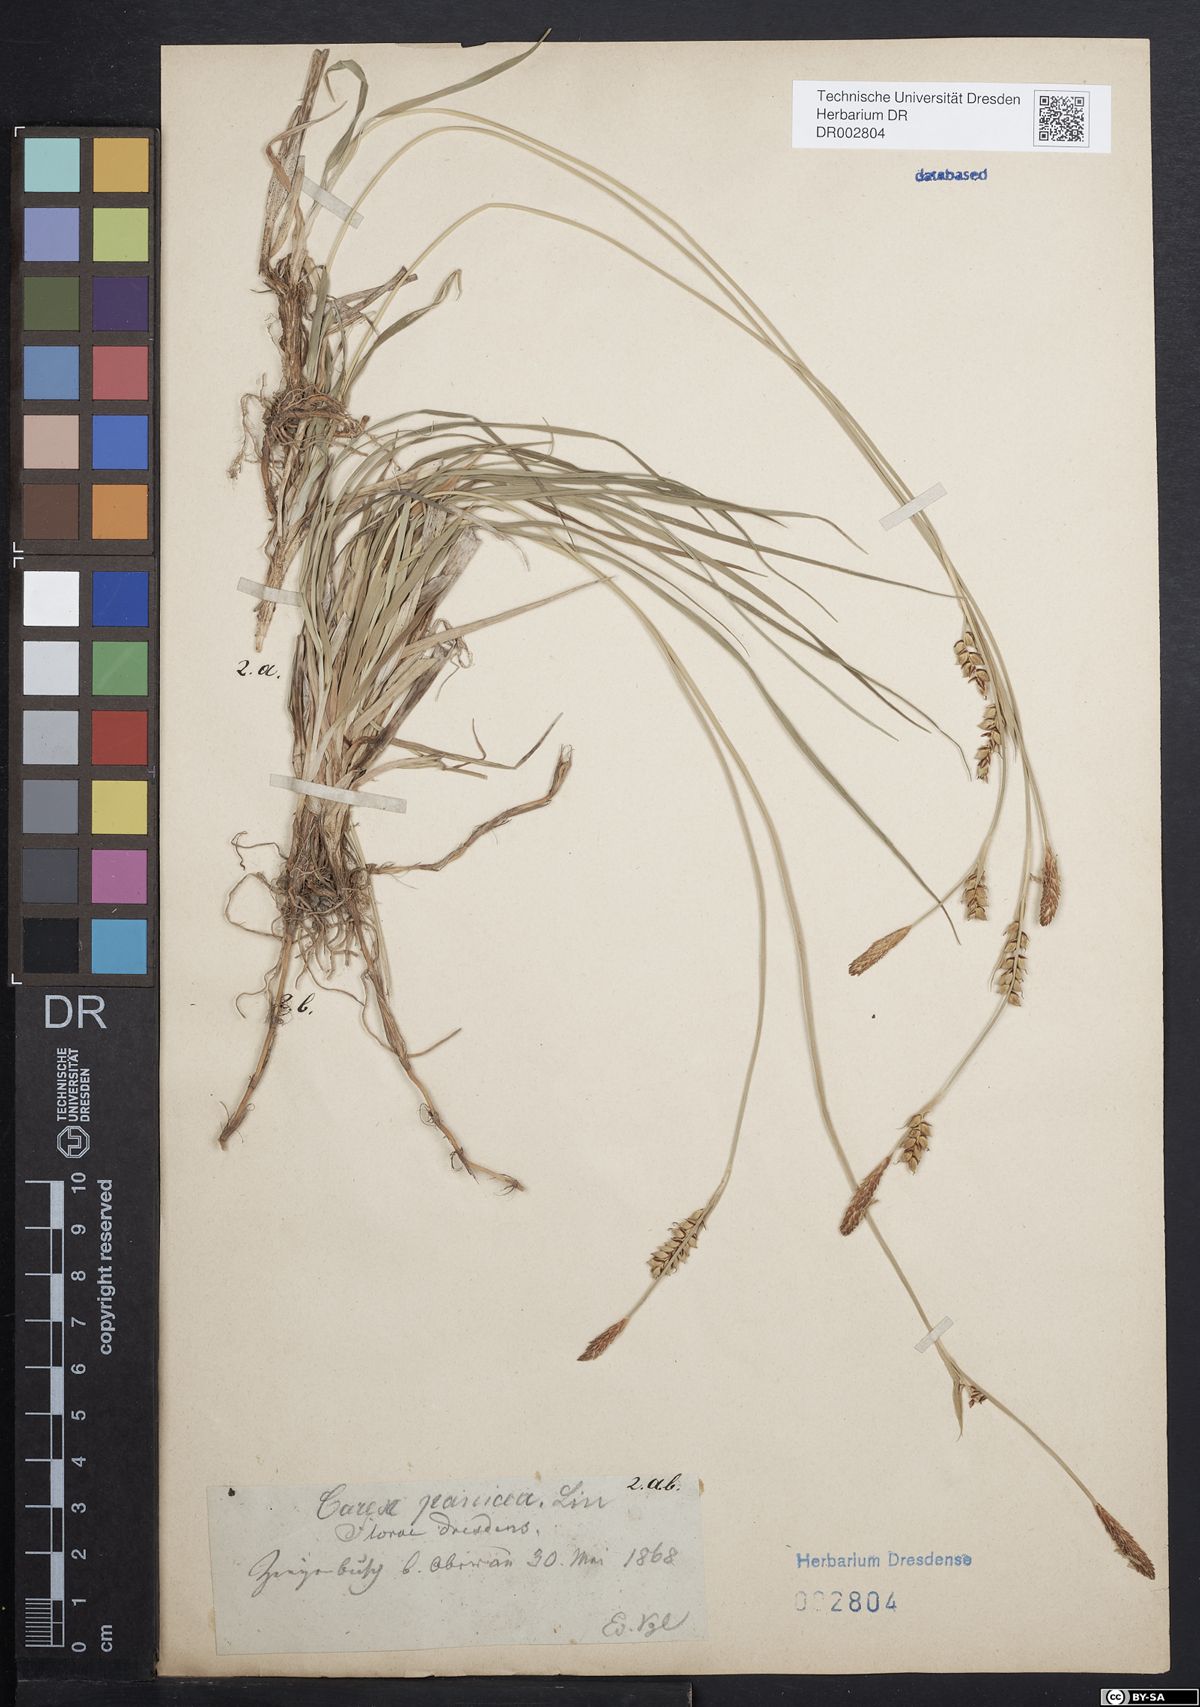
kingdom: Plantae
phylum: Tracheophyta
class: Liliopsida
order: Poales
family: Cyperaceae
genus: Carex
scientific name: Carex panicea
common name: Carnation sedge
